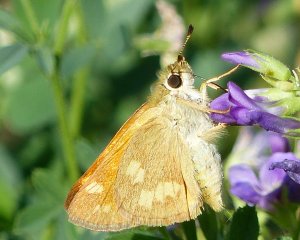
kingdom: Animalia
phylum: Arthropoda
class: Insecta
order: Lepidoptera
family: Hesperiidae
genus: Ochlodes
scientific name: Ochlodes sylvanoides
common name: Woodland Skipper
